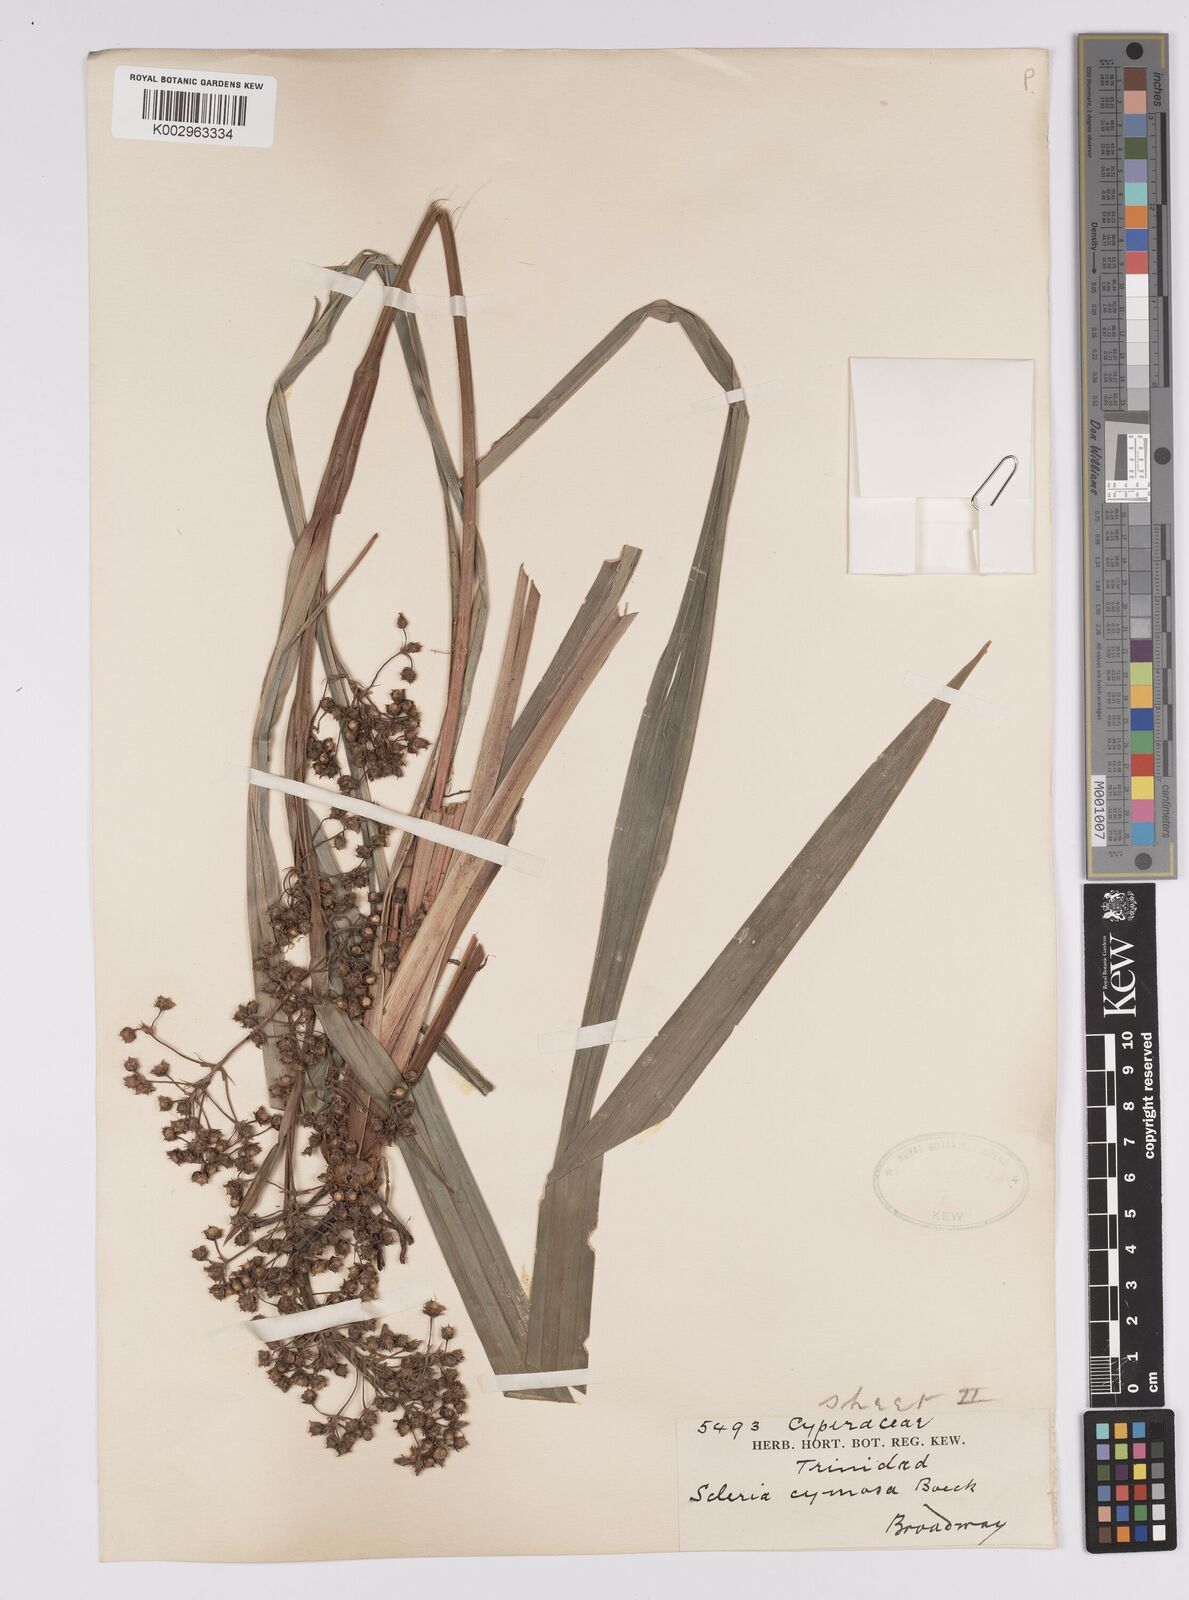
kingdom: Plantae
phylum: Tracheophyta
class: Liliopsida
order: Poales
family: Cyperaceae
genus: Becquerelia
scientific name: Becquerelia cymosa
